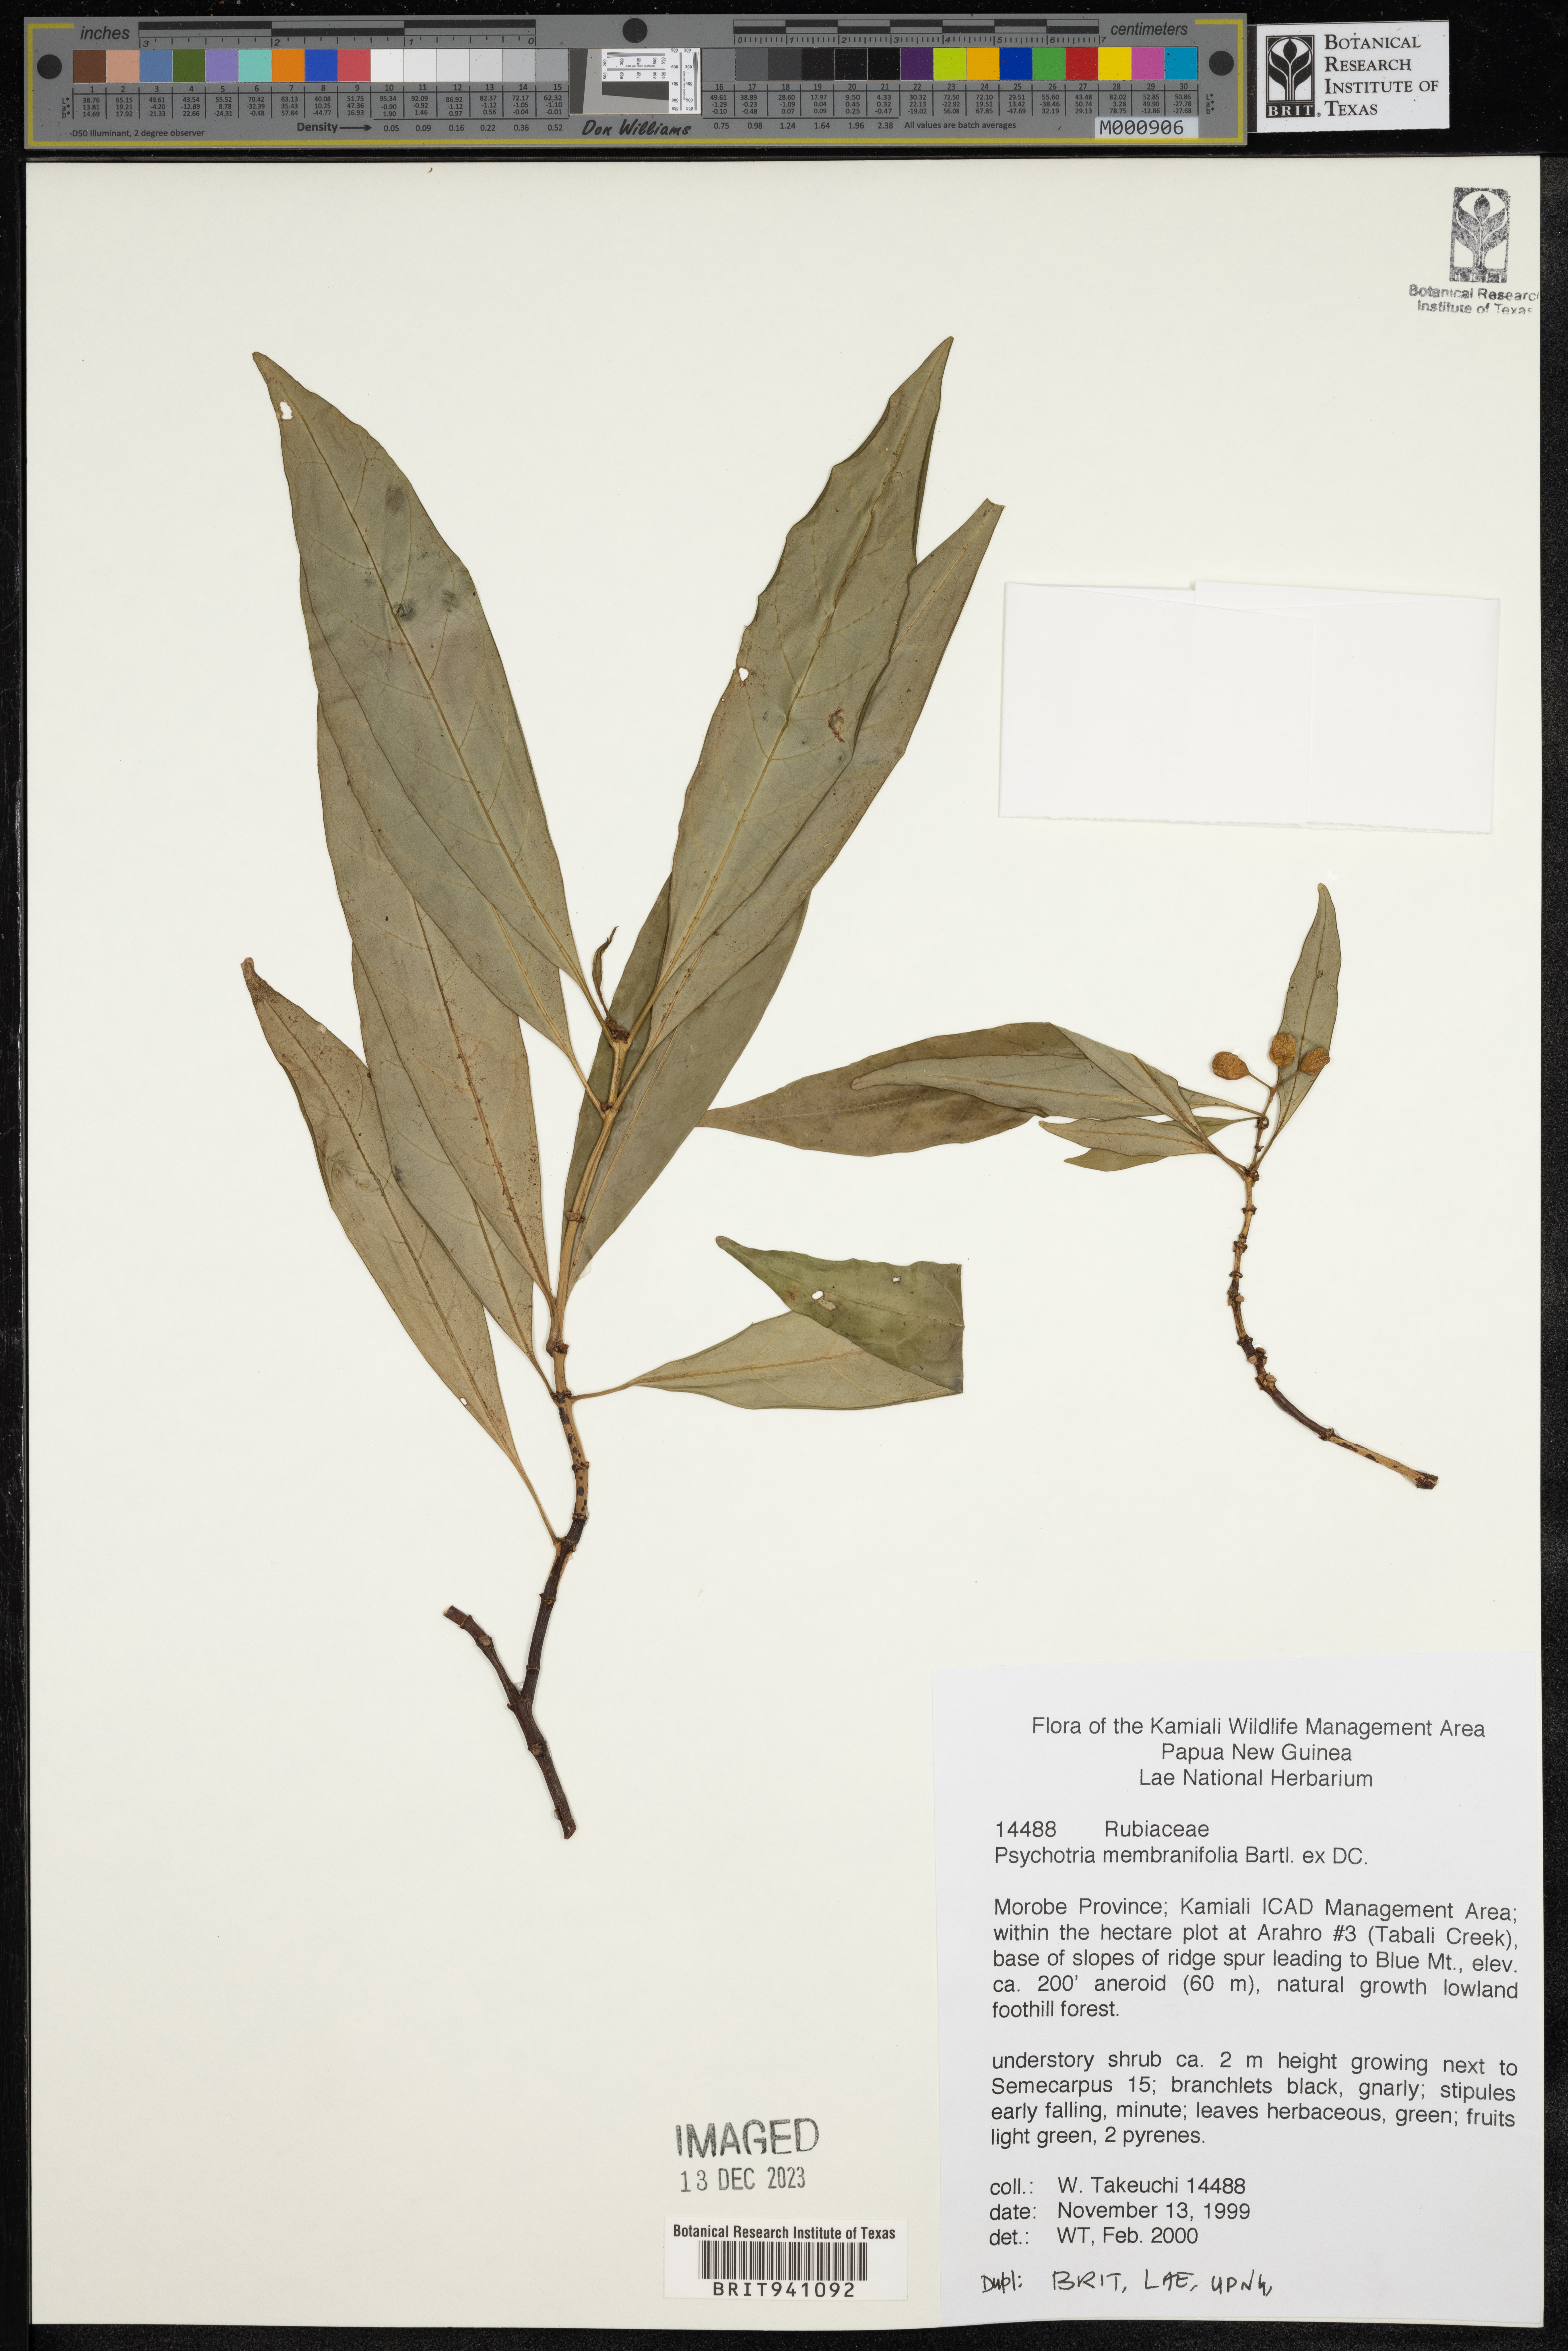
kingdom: Plantae
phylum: Tracheophyta
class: Magnoliopsida
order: Gentianales
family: Rubiaceae
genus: Psychotria
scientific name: Psychotria
